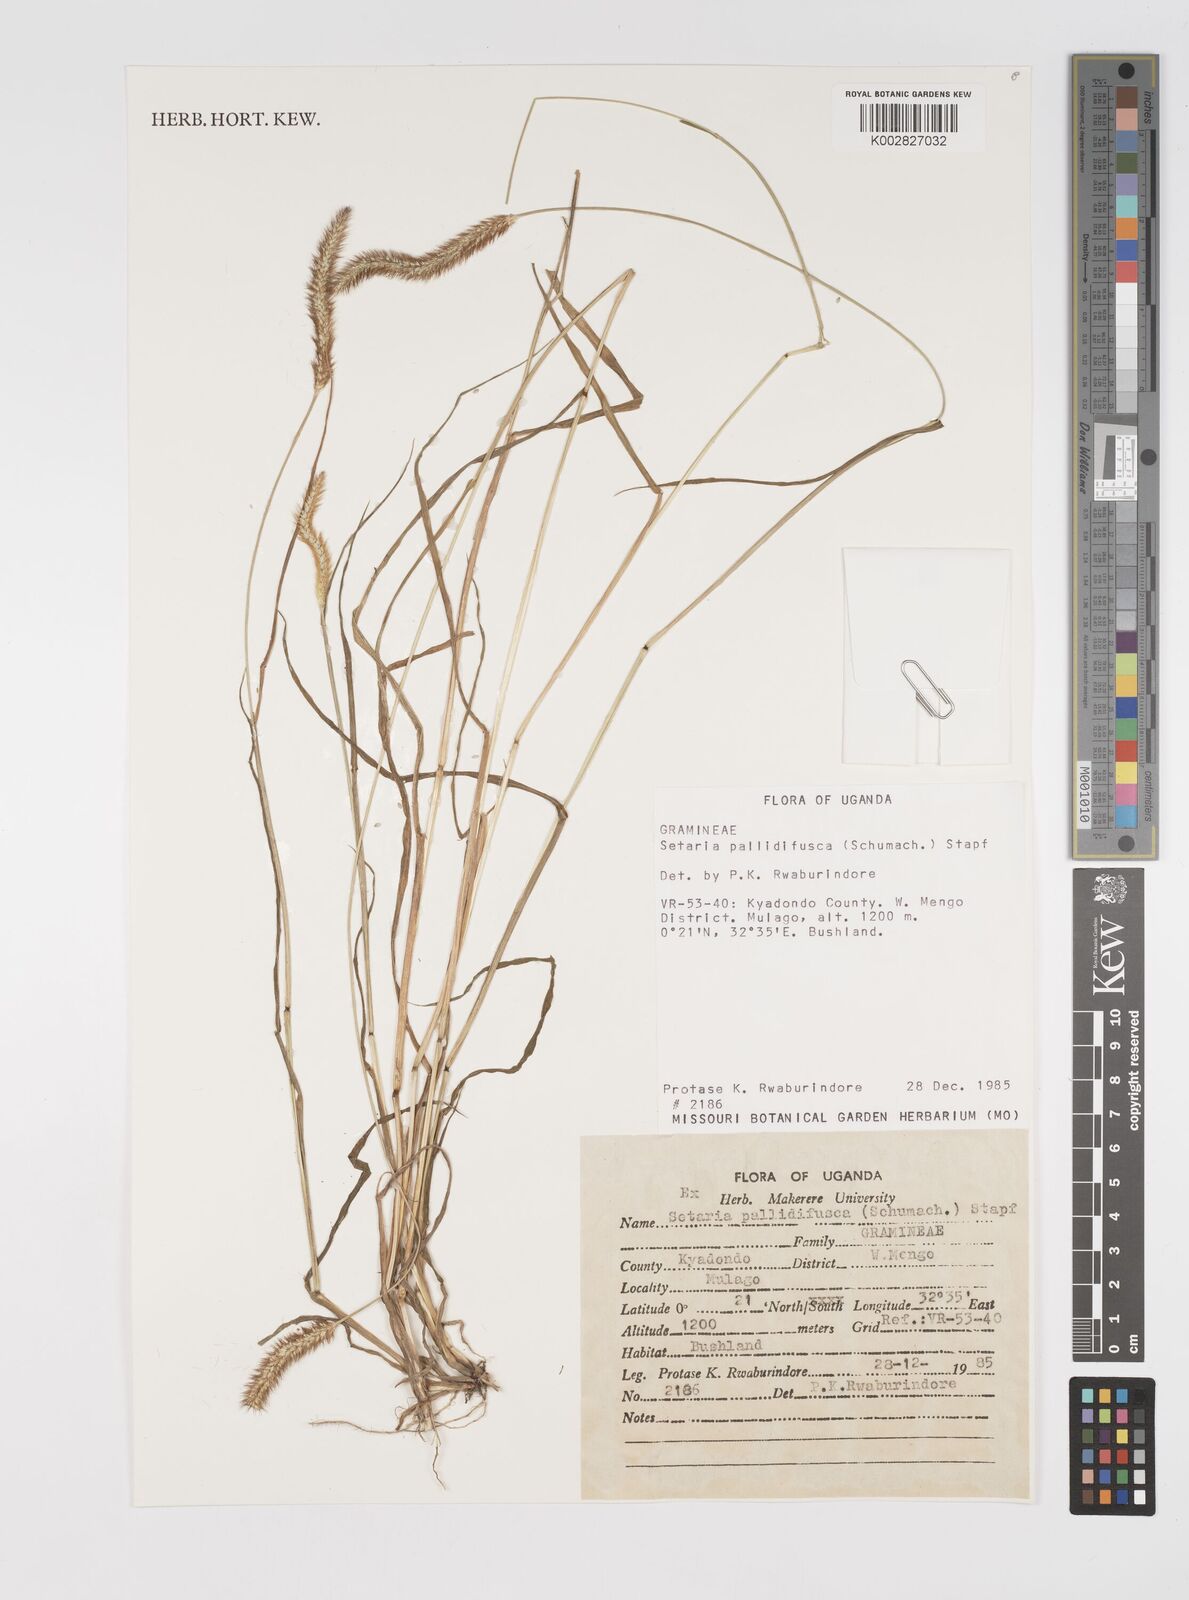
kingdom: Plantae
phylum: Tracheophyta
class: Liliopsida
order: Poales
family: Poaceae
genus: Setaria
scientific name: Setaria pumila
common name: Yellow bristle-grass
